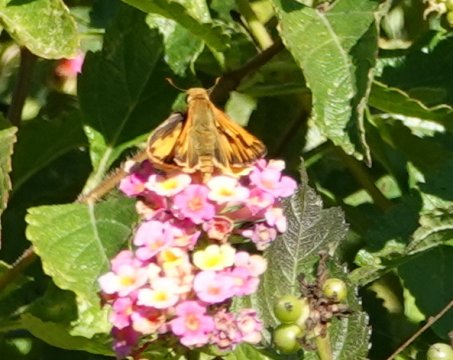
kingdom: Animalia
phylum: Arthropoda
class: Insecta
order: Lepidoptera
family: Hesperiidae
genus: Hylephila
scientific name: Hylephila phyleus
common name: Fiery Skipper
